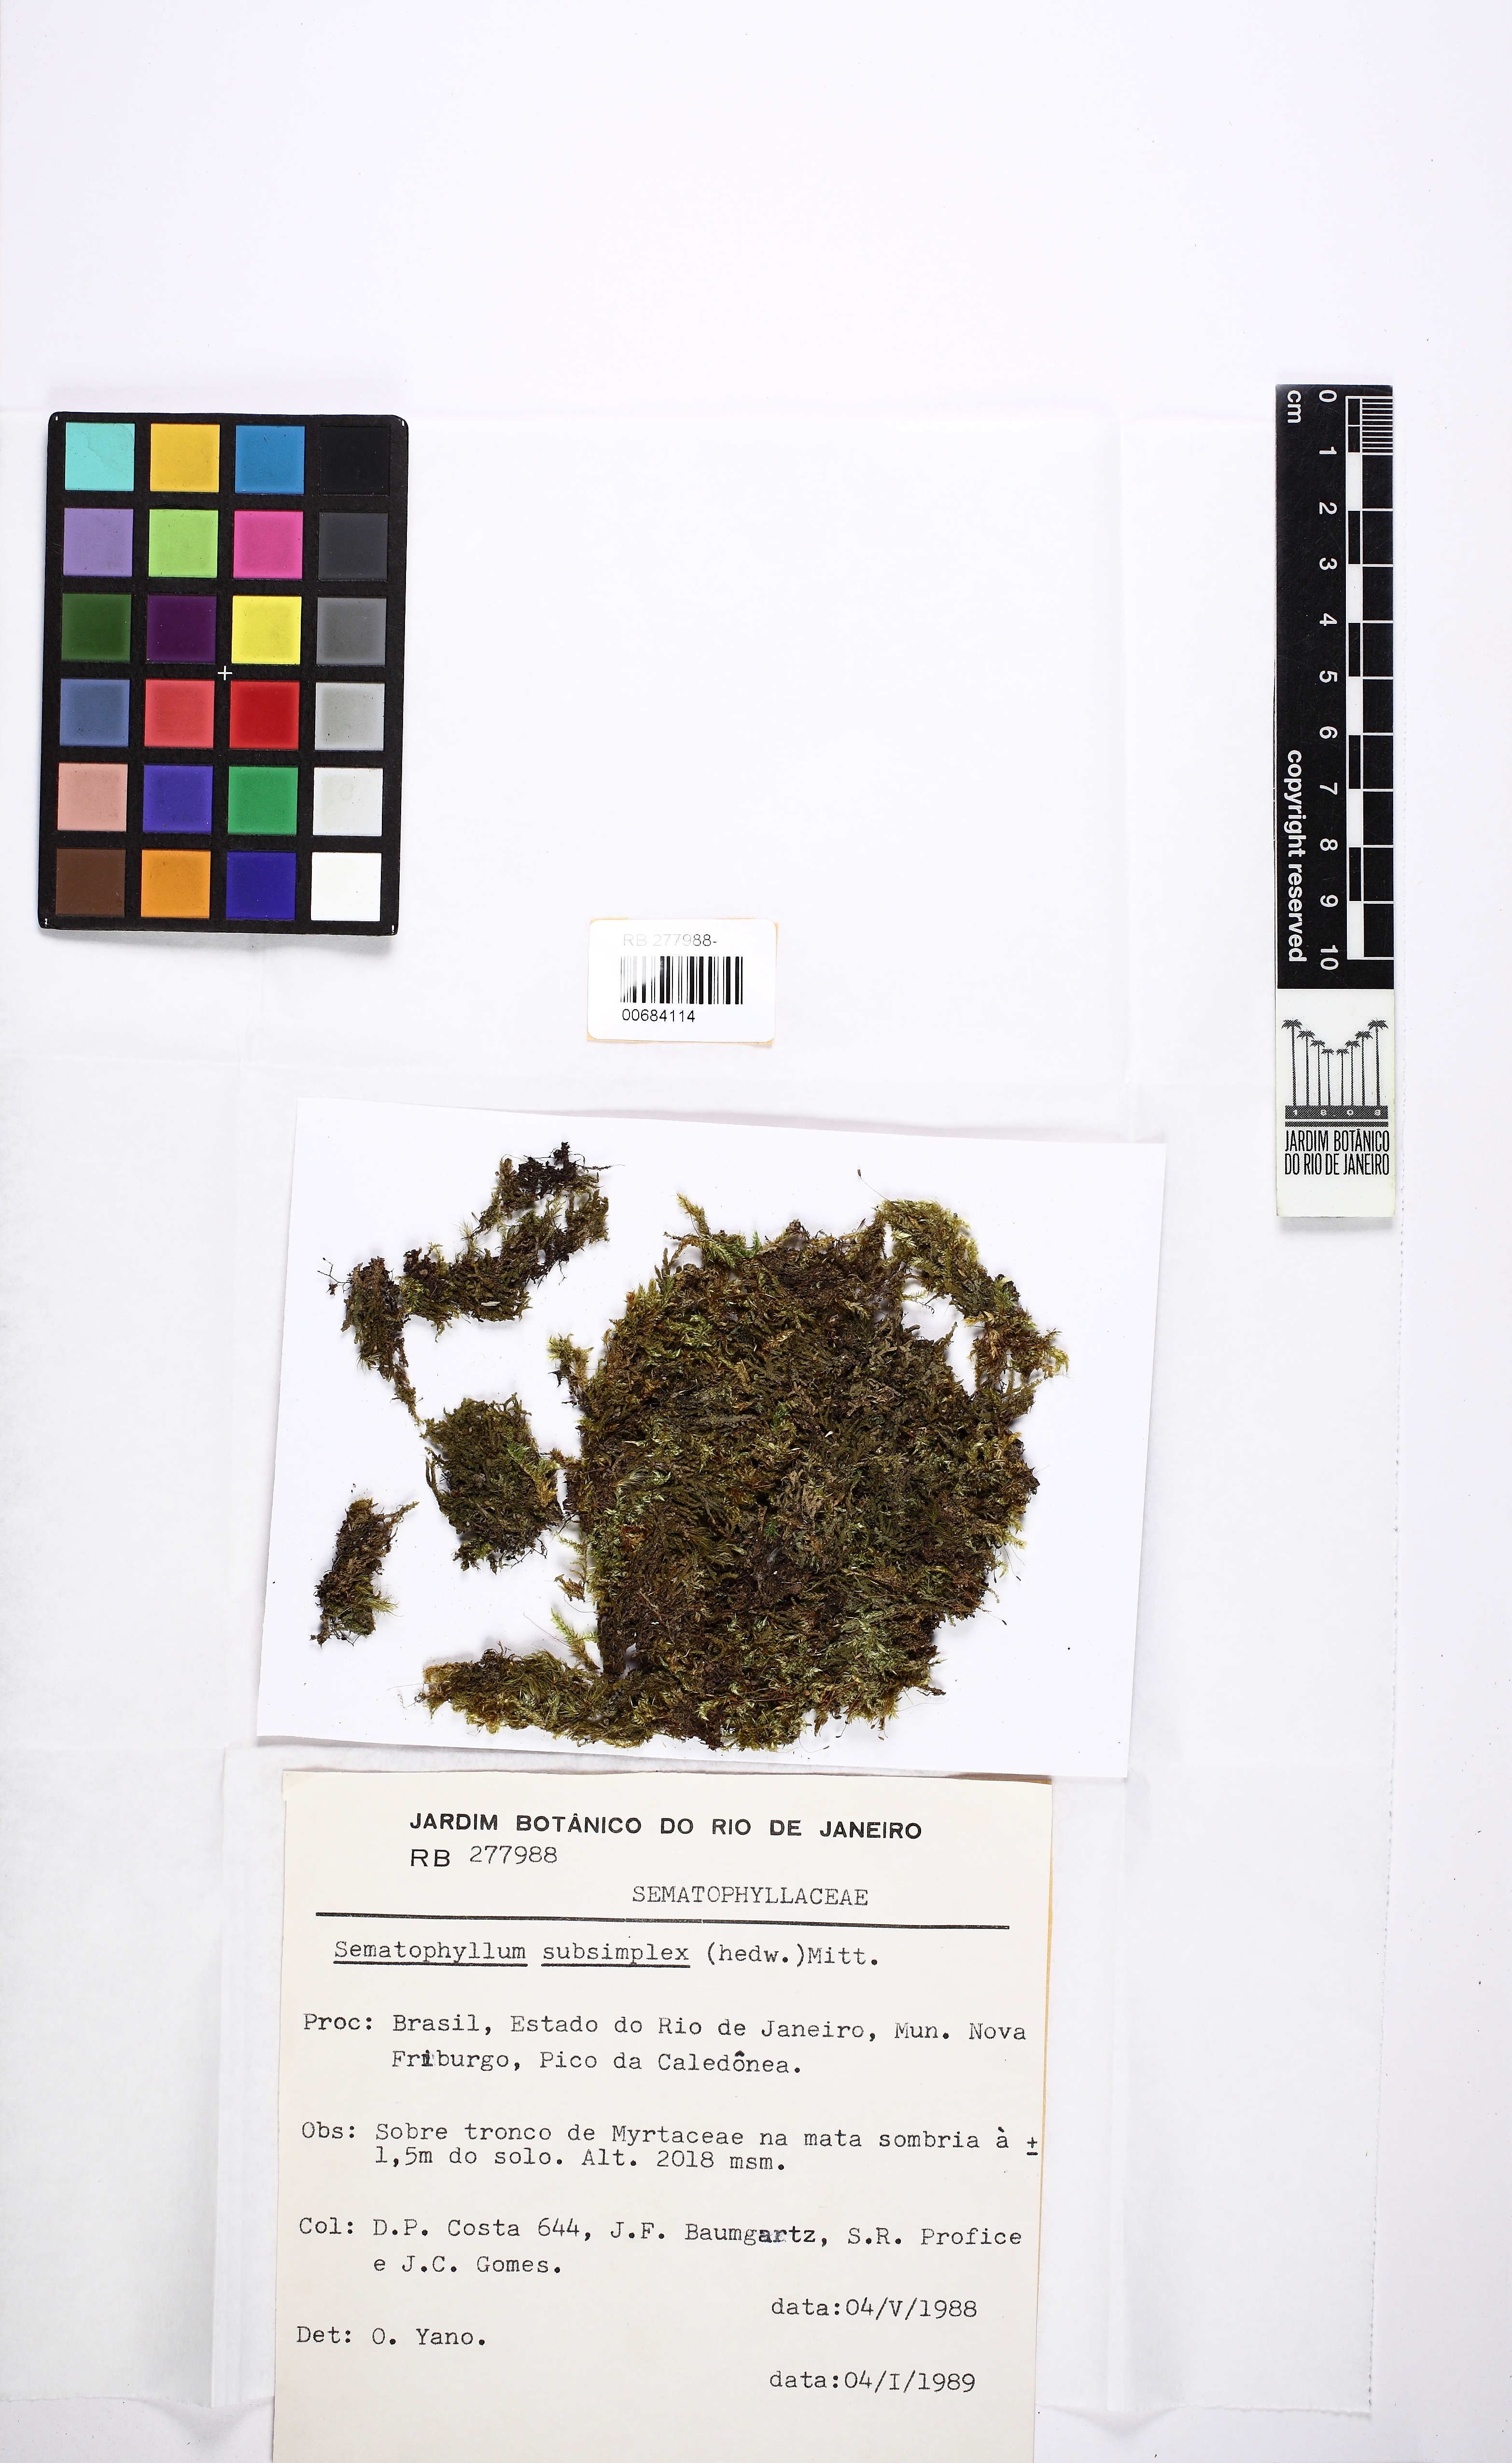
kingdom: Plantae
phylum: Bryophyta
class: Bryopsida
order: Hypnales
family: Sematophyllaceae
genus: Microcalpe
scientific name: Microcalpe subsimplex
